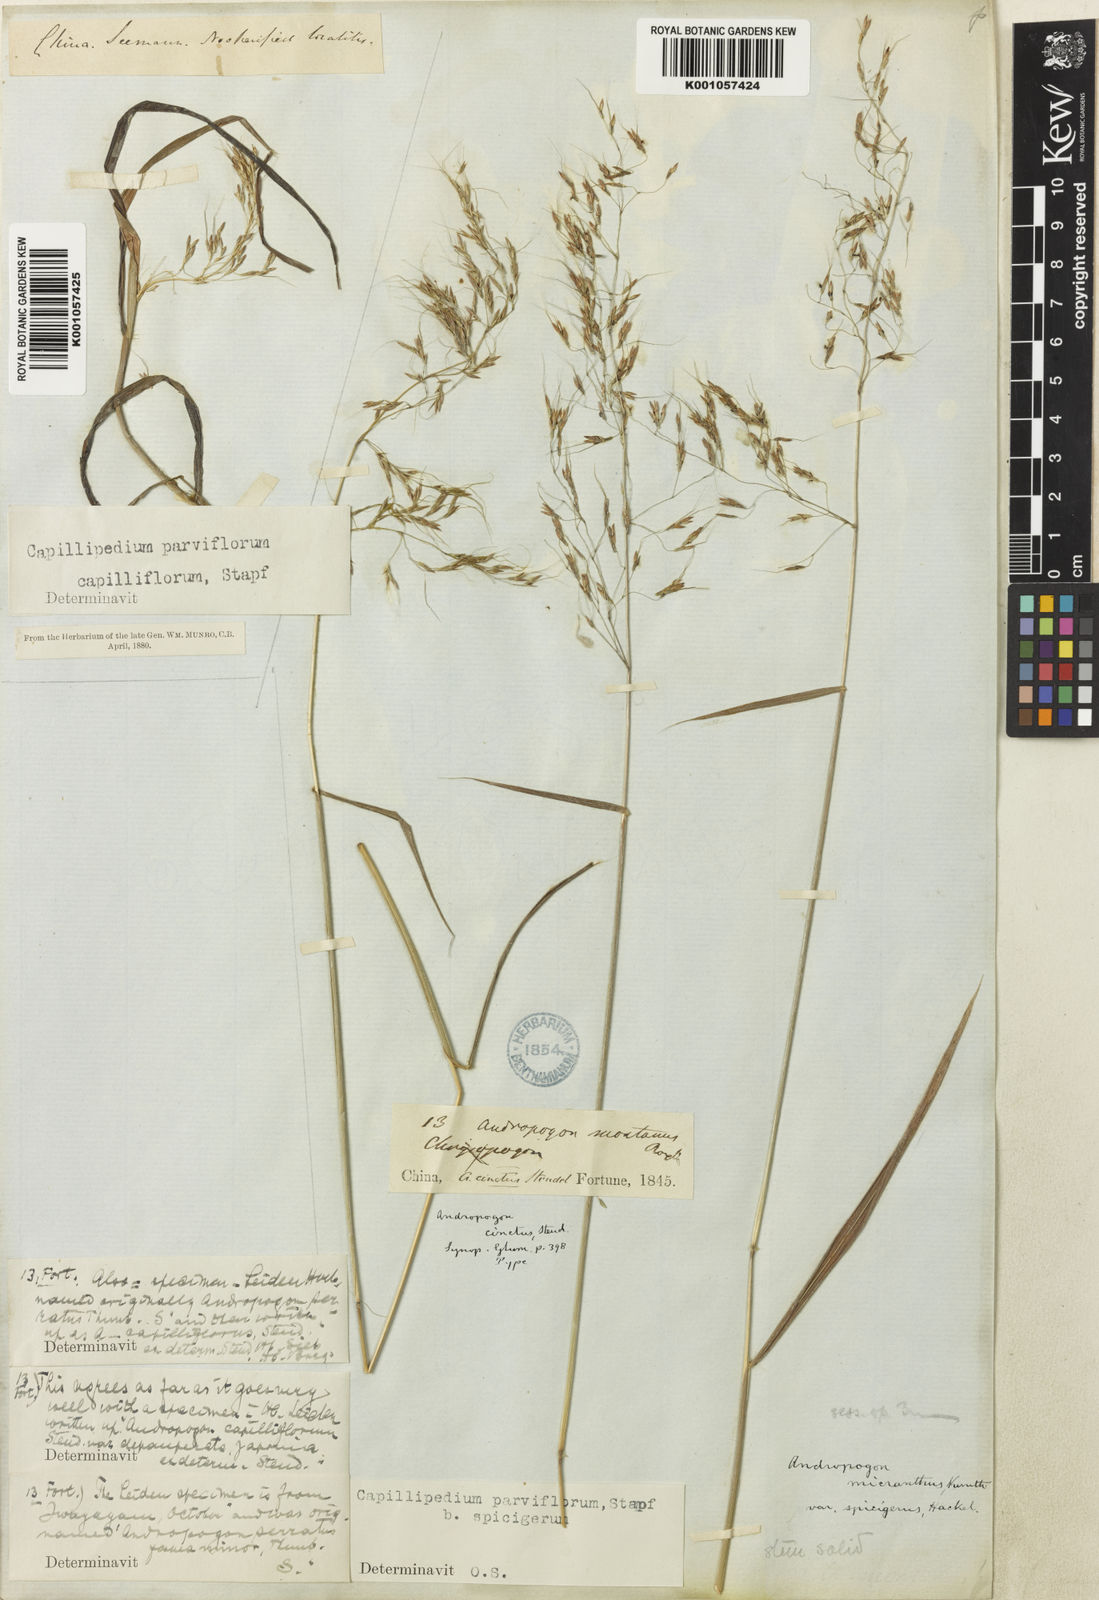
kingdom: Plantae
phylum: Tracheophyta
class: Liliopsida
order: Poales
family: Poaceae
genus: Capillipedium
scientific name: Capillipedium parviflorum
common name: Golden-beard
